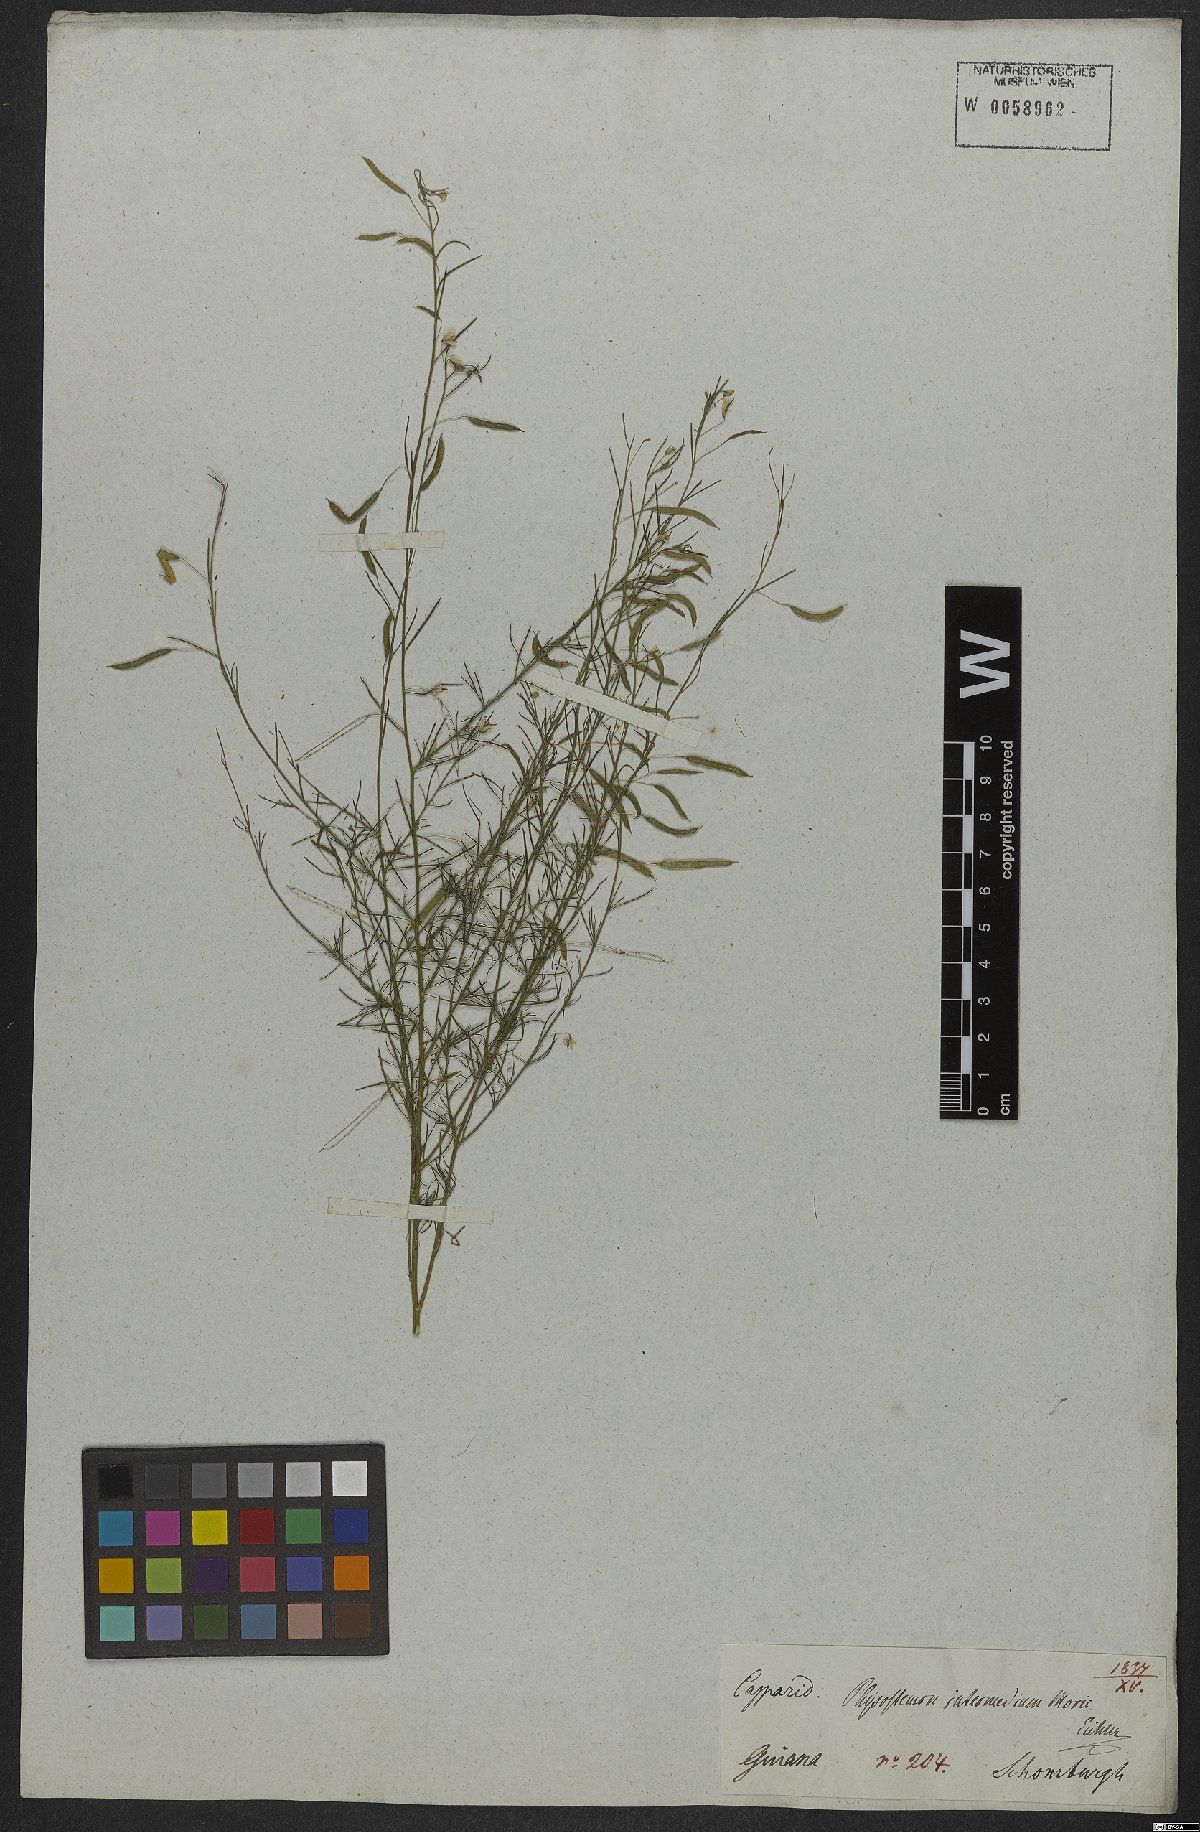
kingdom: Plantae
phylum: Tracheophyta
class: Magnoliopsida
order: Brassicales
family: Cleomaceae
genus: Andinocleome
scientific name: Andinocleome anomala
